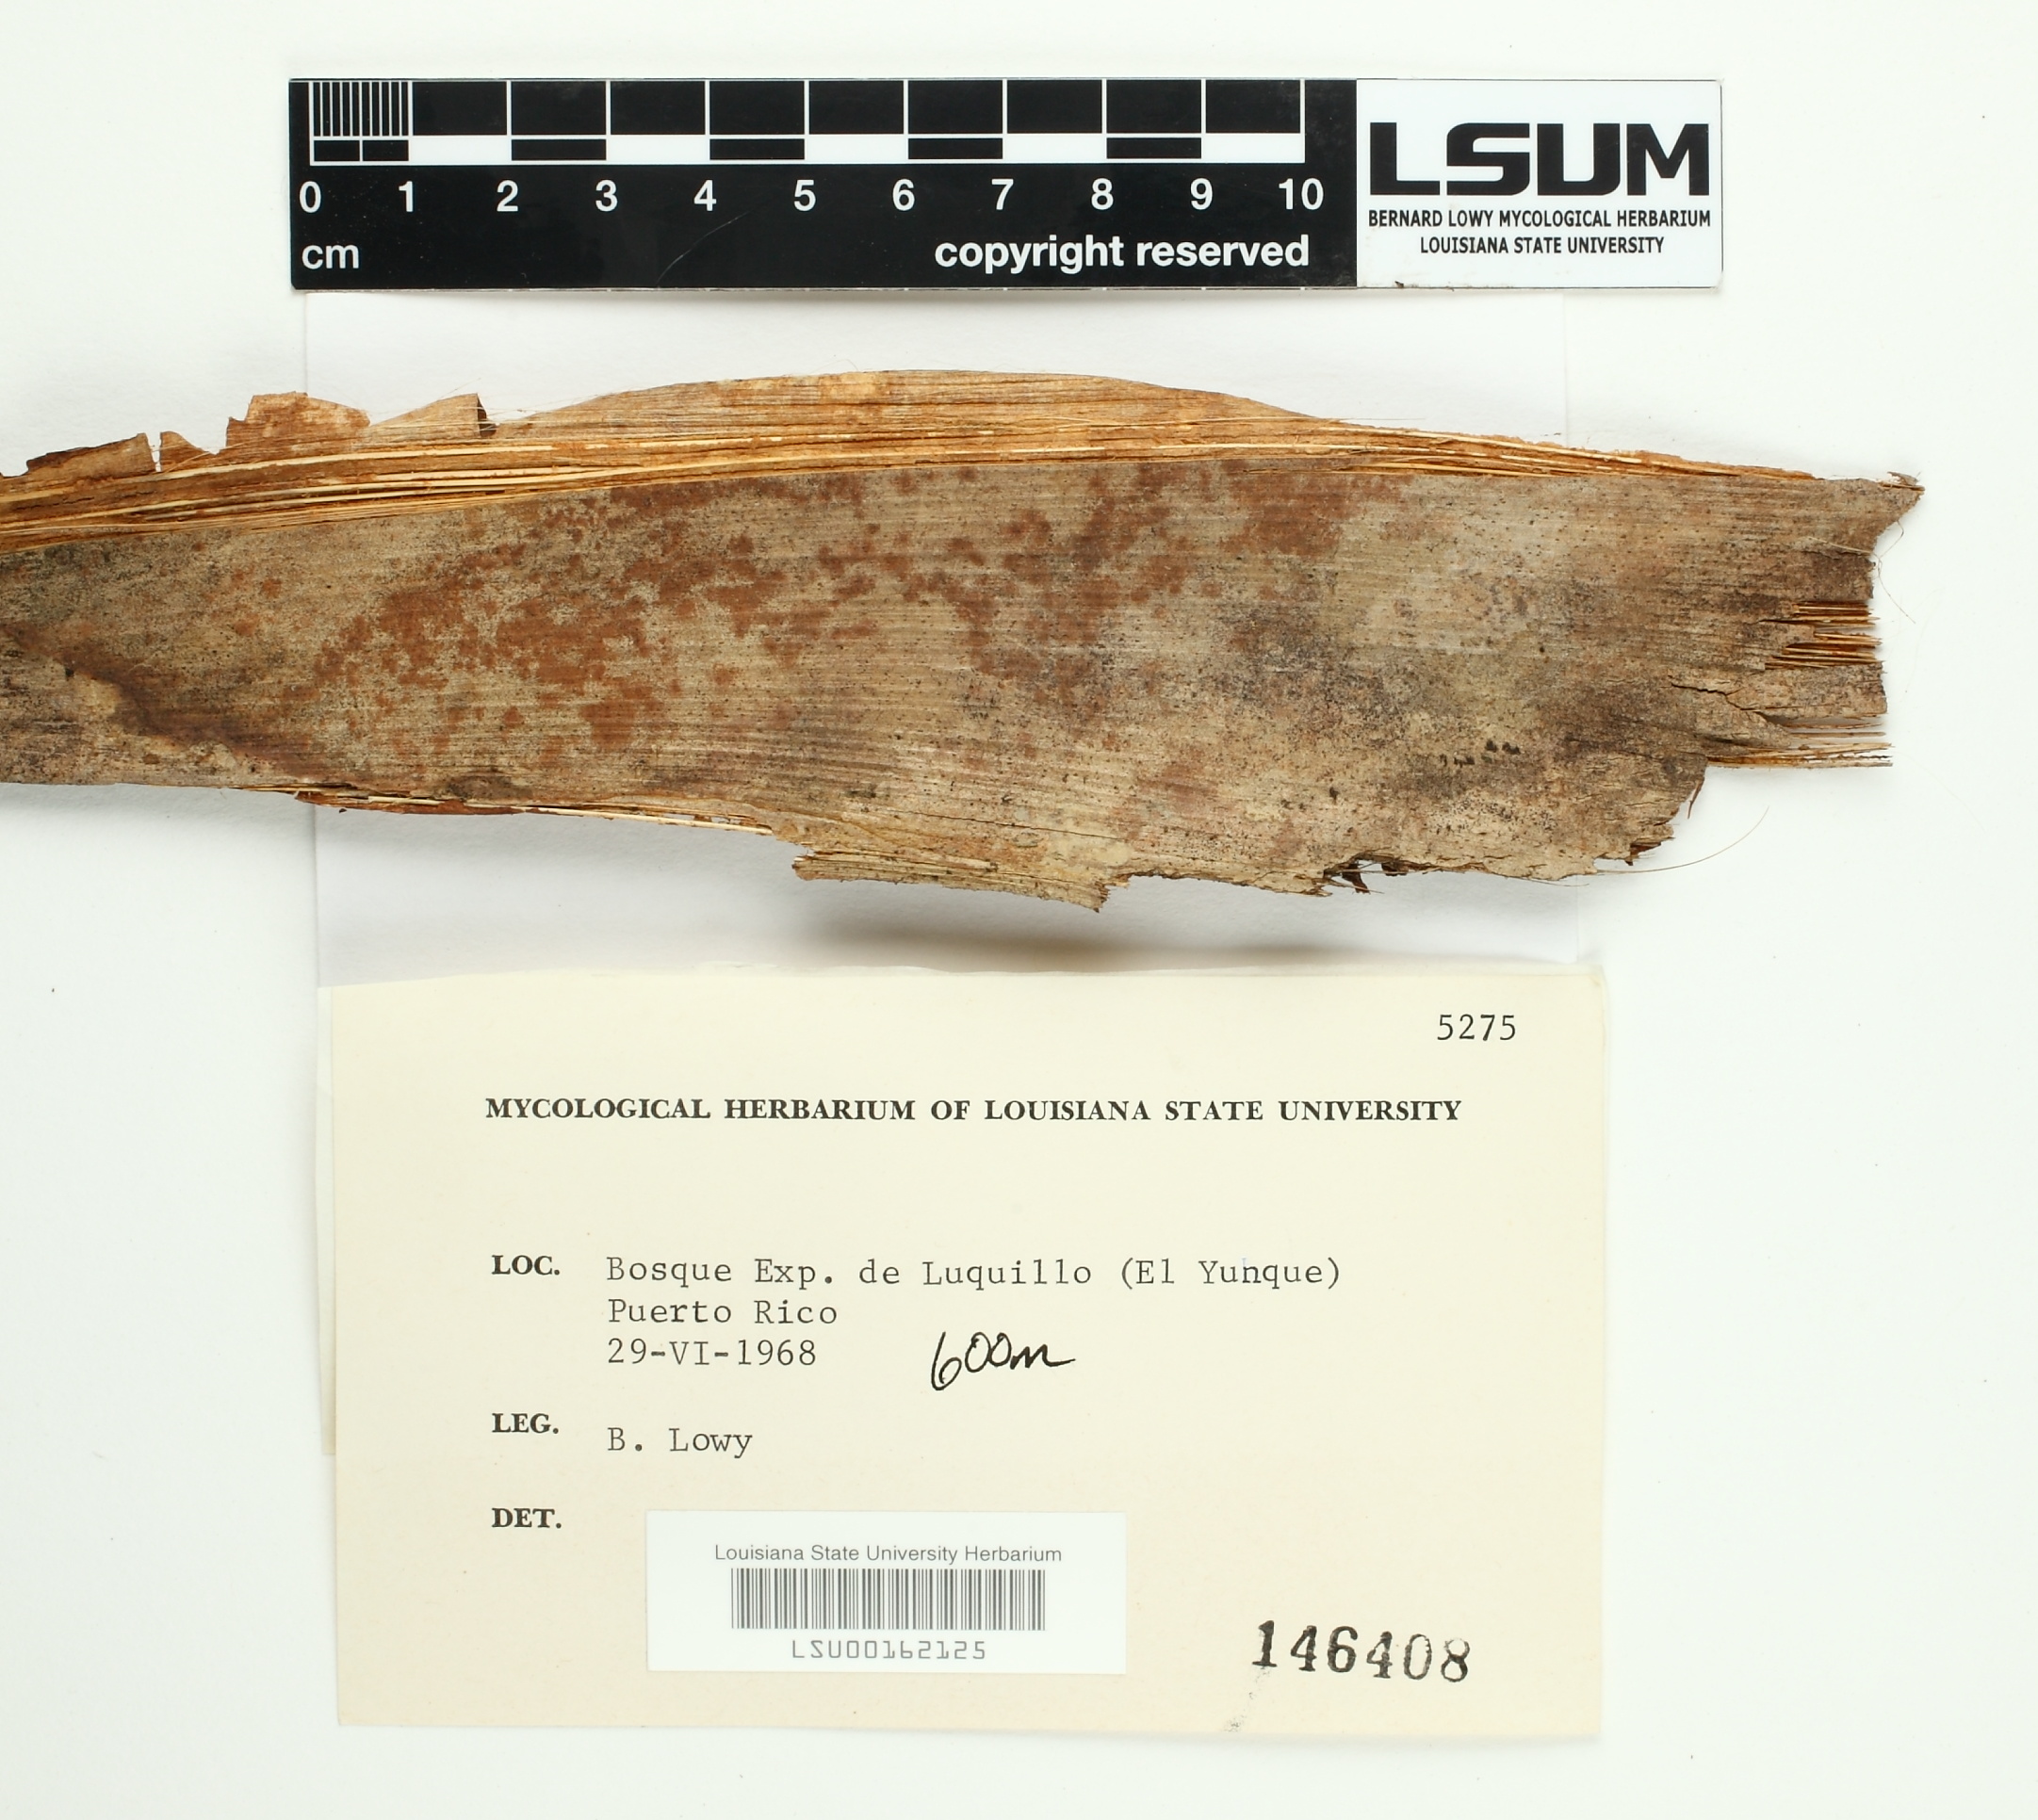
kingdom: Fungi
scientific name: Fungi
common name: Fungi
